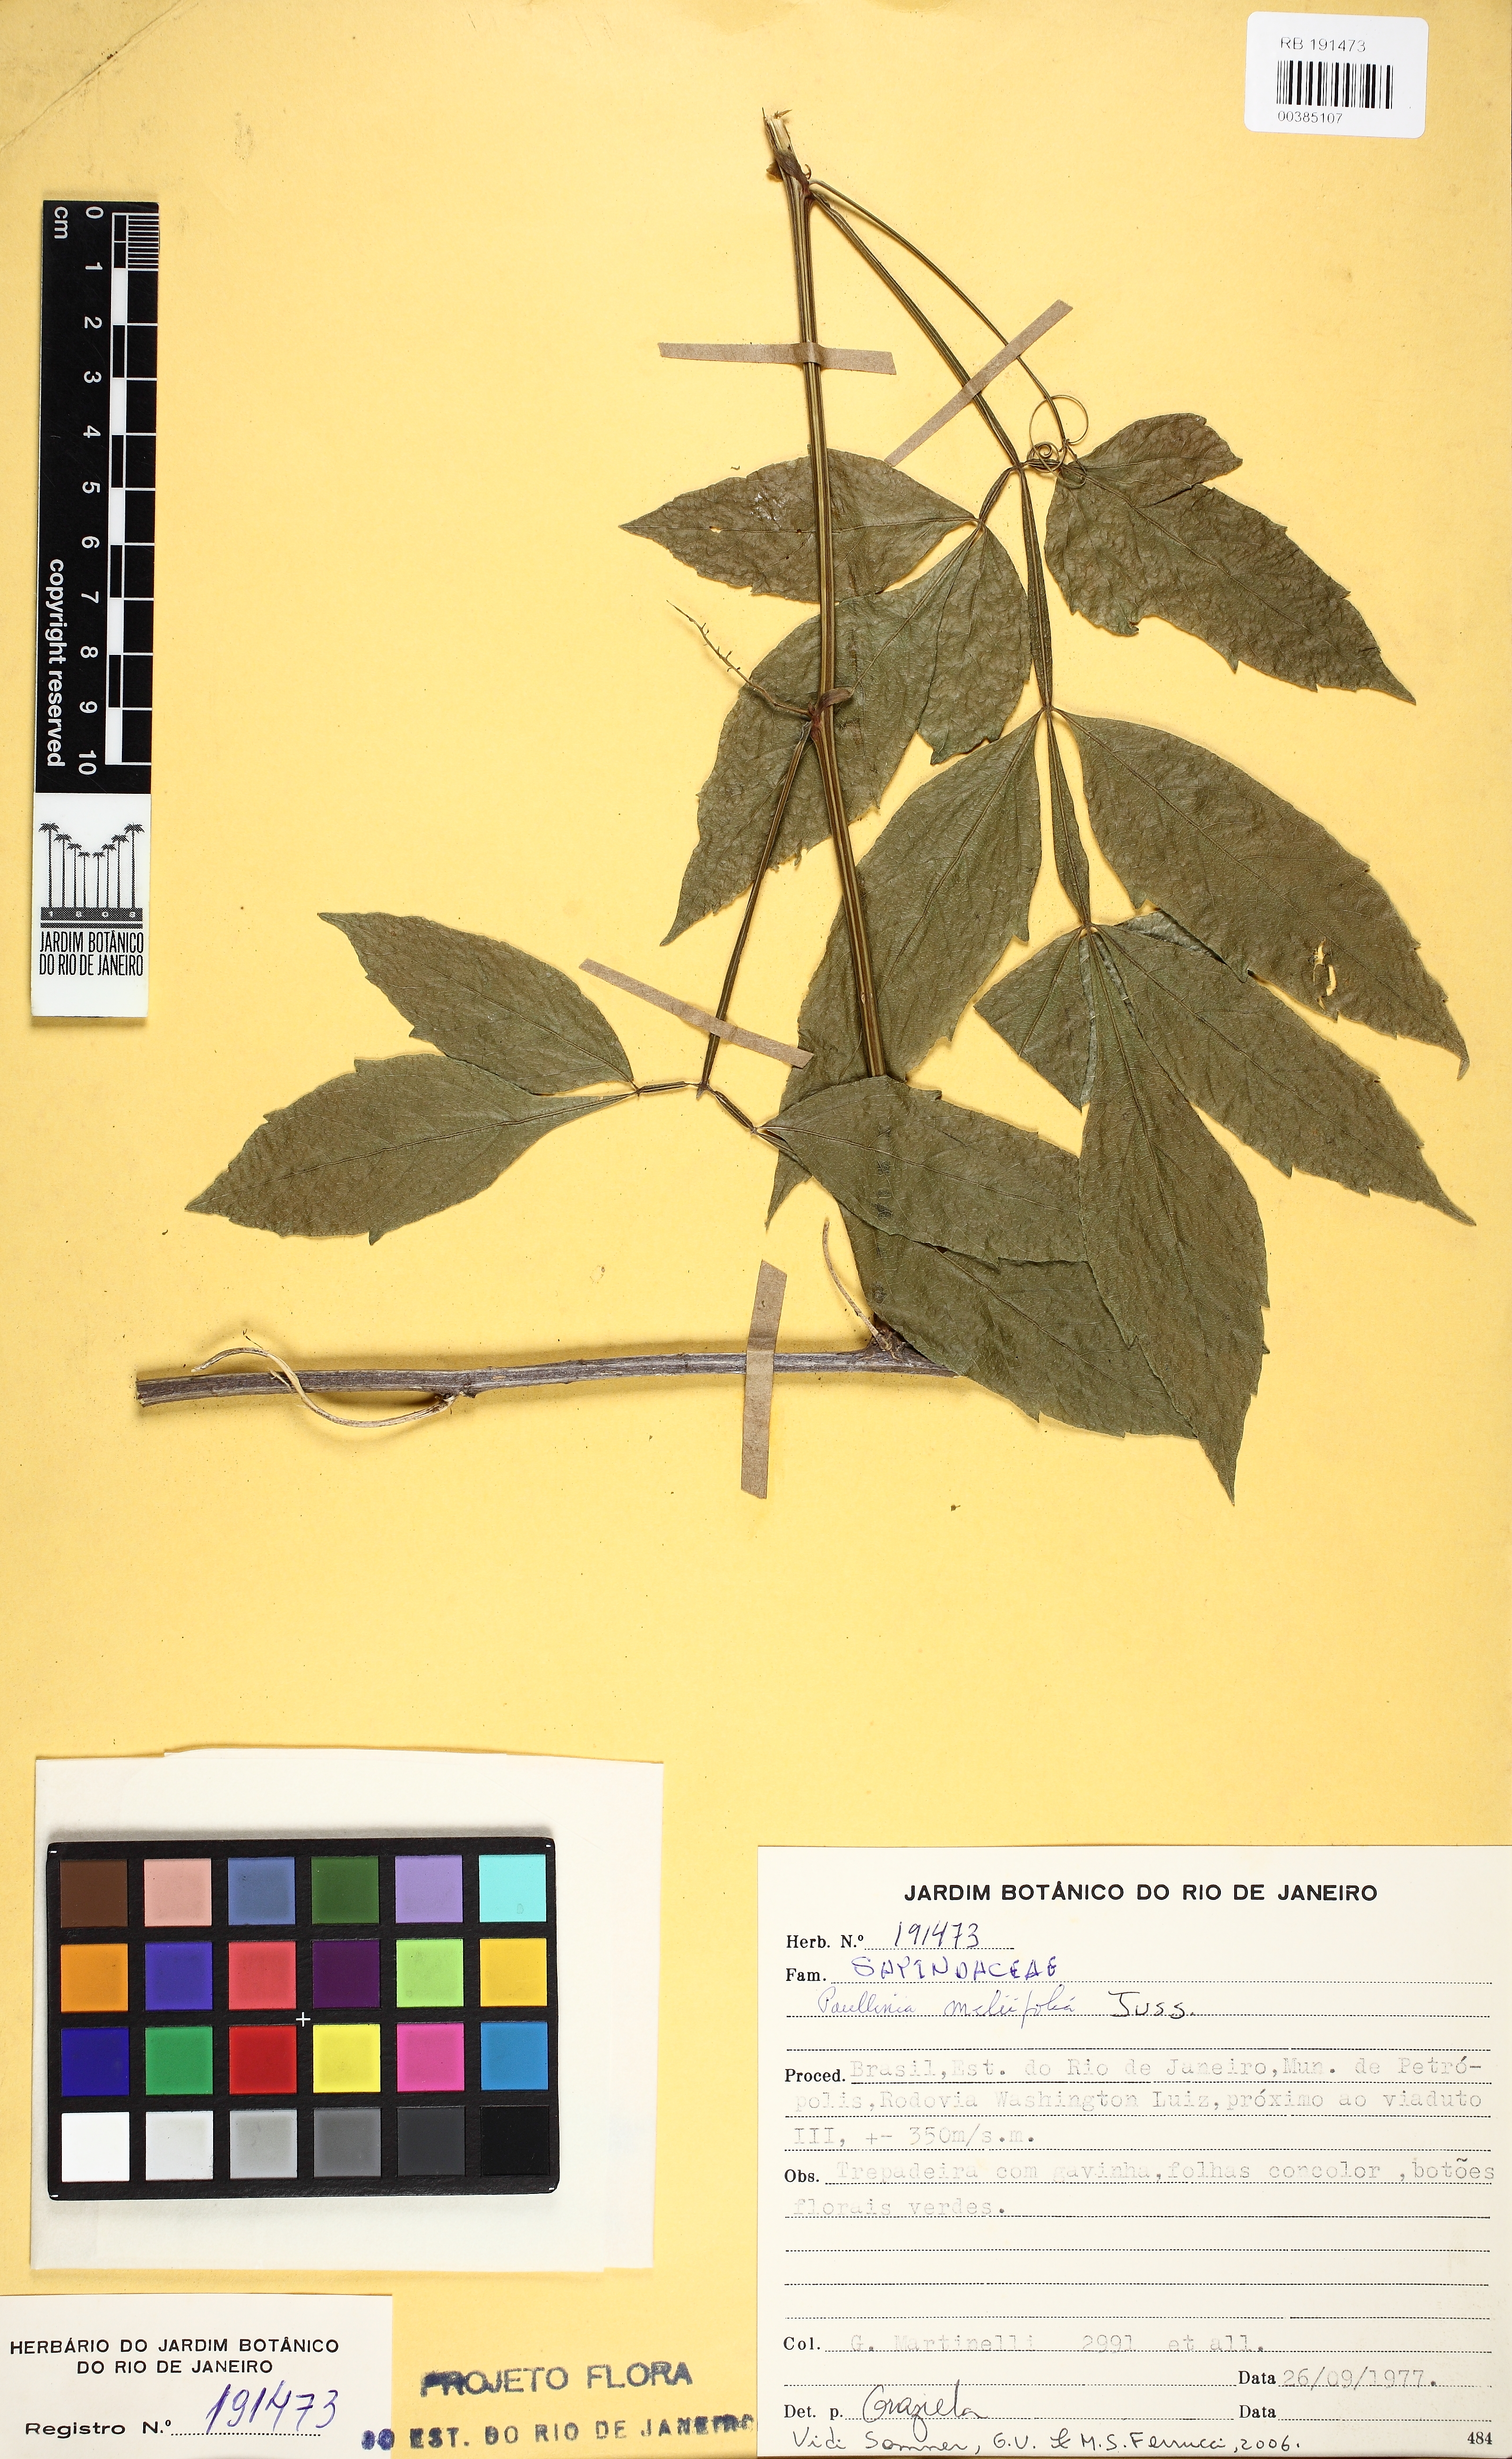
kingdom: Plantae
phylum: Tracheophyta
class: Magnoliopsida
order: Sapindales
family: Sapindaceae
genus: Paullinia
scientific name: Paullinia meliifolia
